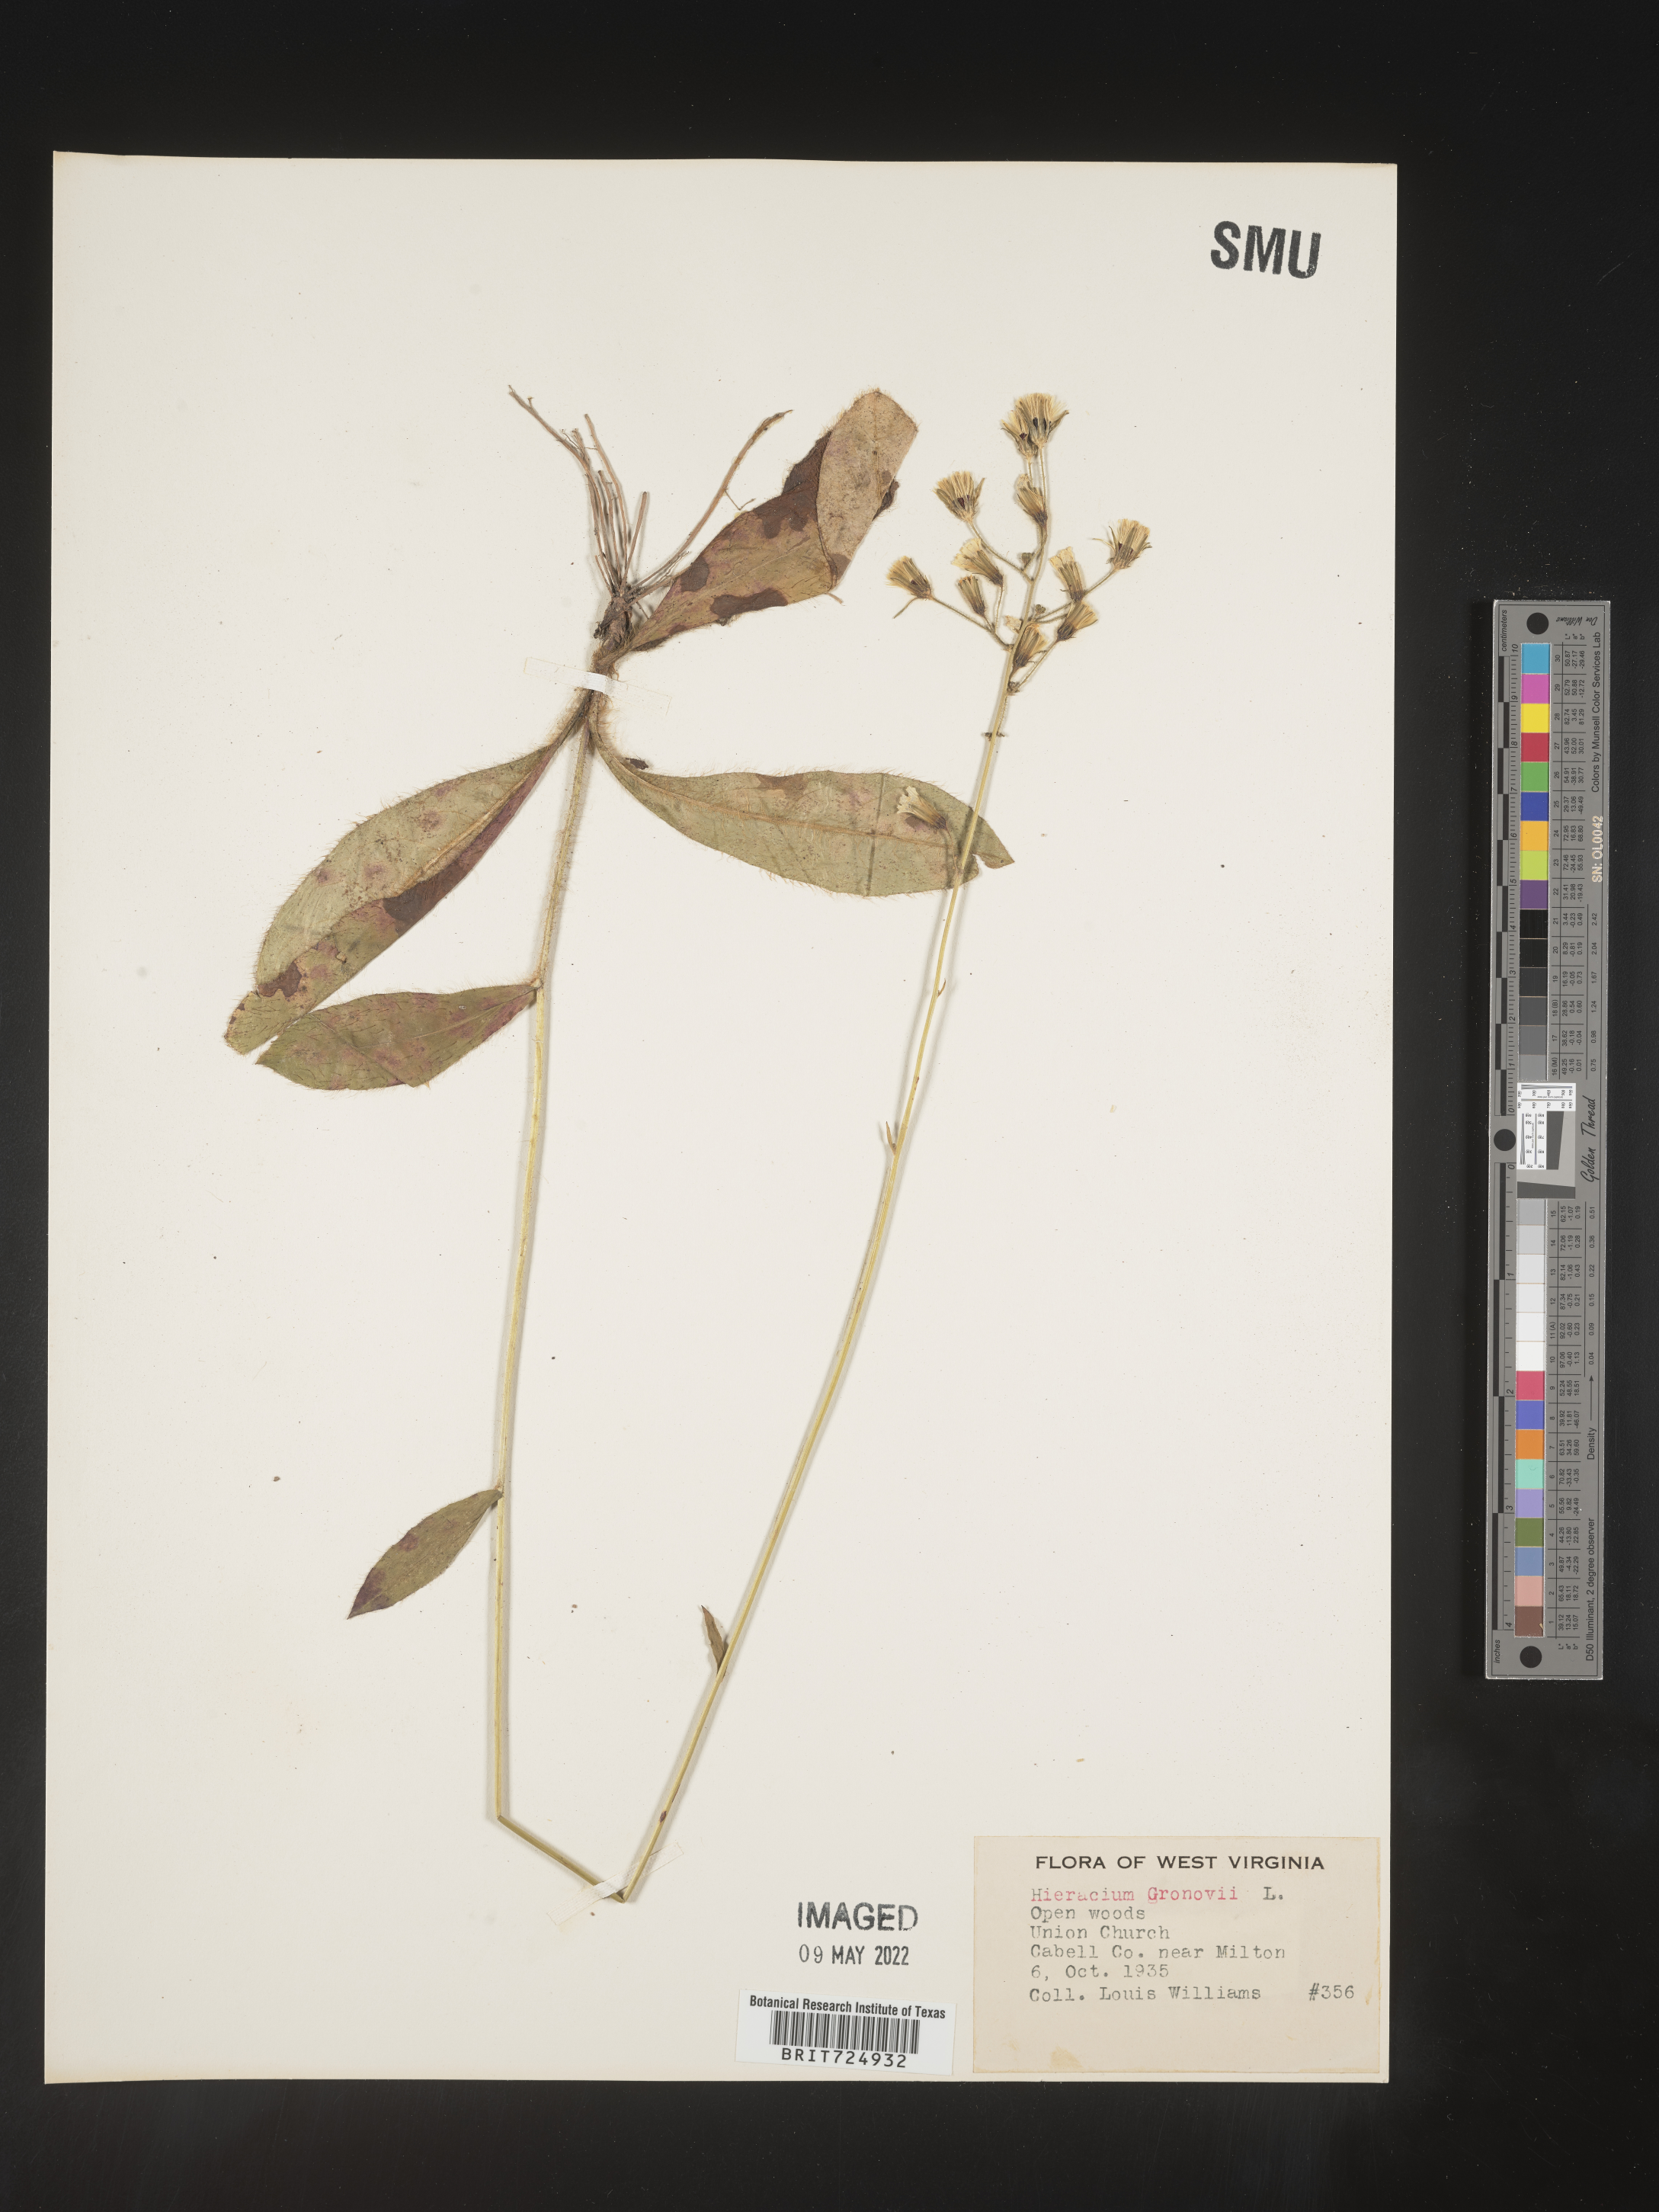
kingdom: Plantae
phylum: Tracheophyta
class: Magnoliopsida
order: Asterales
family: Asteraceae
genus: Hieracium
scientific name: Hieracium gronovii
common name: Beaked hawkweed
